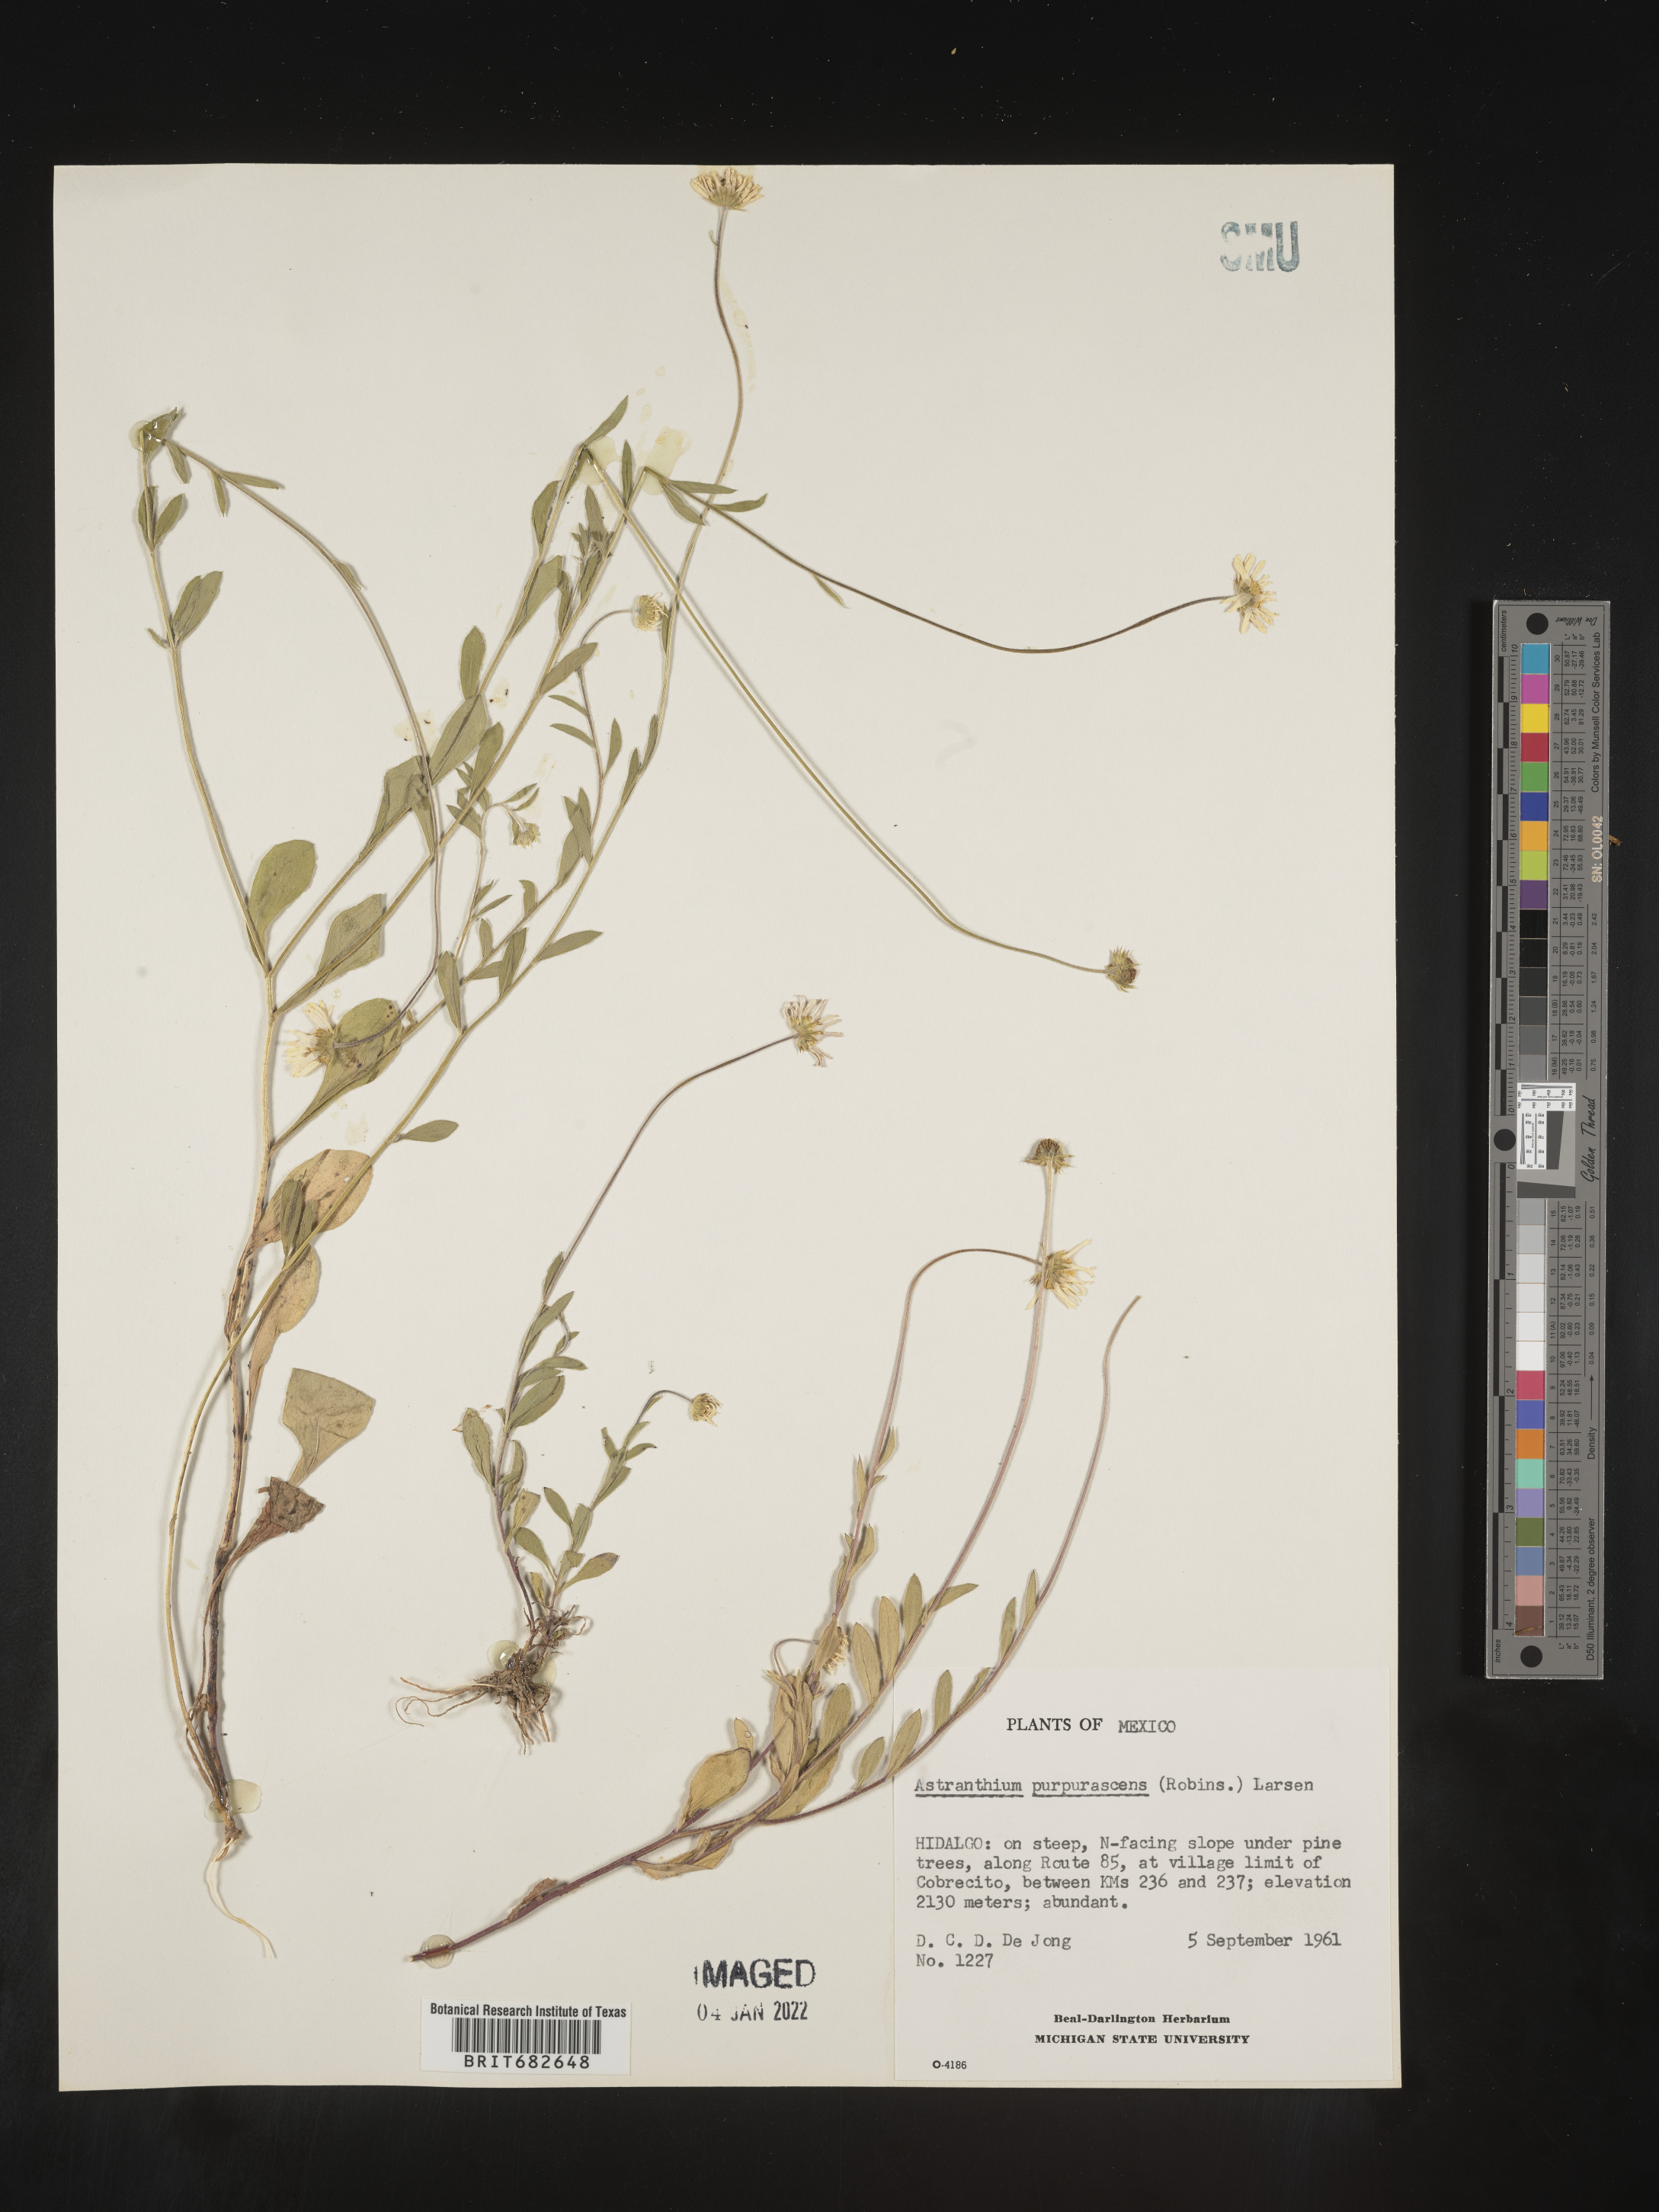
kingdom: Plantae
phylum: Tracheophyta
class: Magnoliopsida
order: Asterales
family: Asteraceae
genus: Astranthium
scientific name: Astranthium
